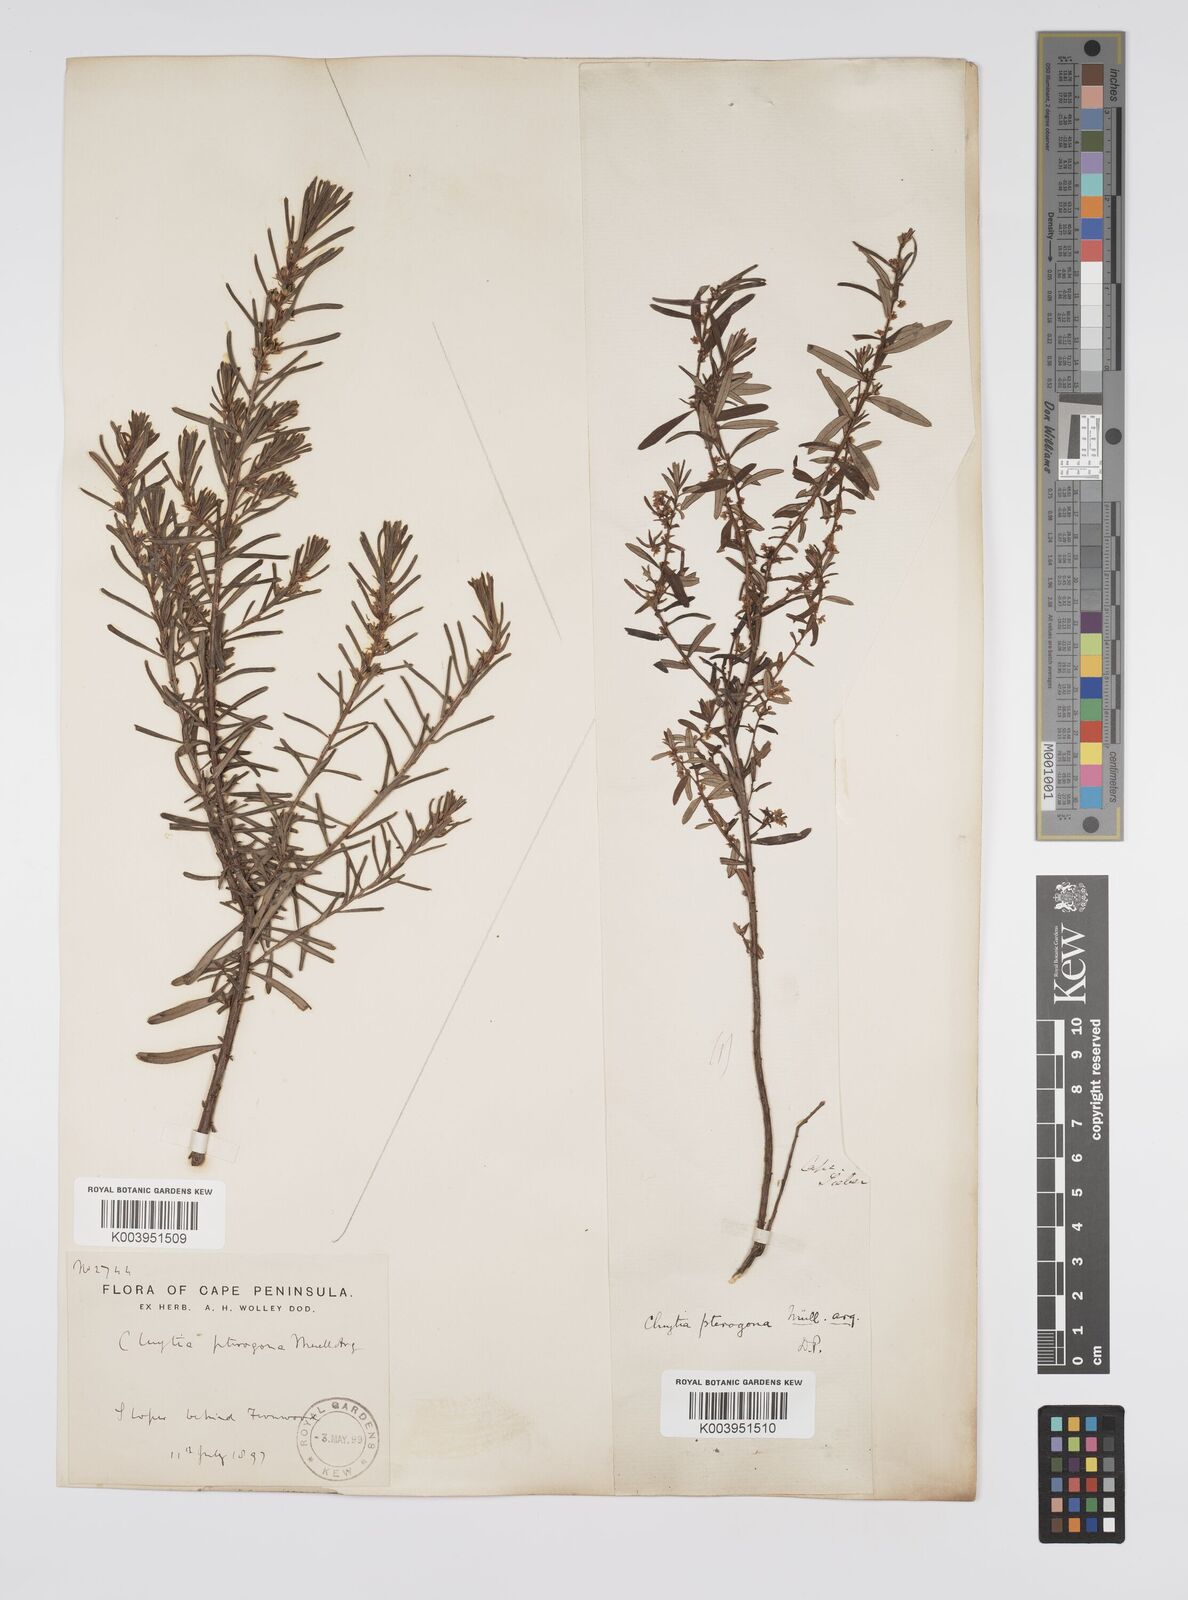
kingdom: Plantae
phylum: Tracheophyta
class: Magnoliopsida
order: Malpighiales
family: Peraceae
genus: Clutia
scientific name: Clutia pterogona
